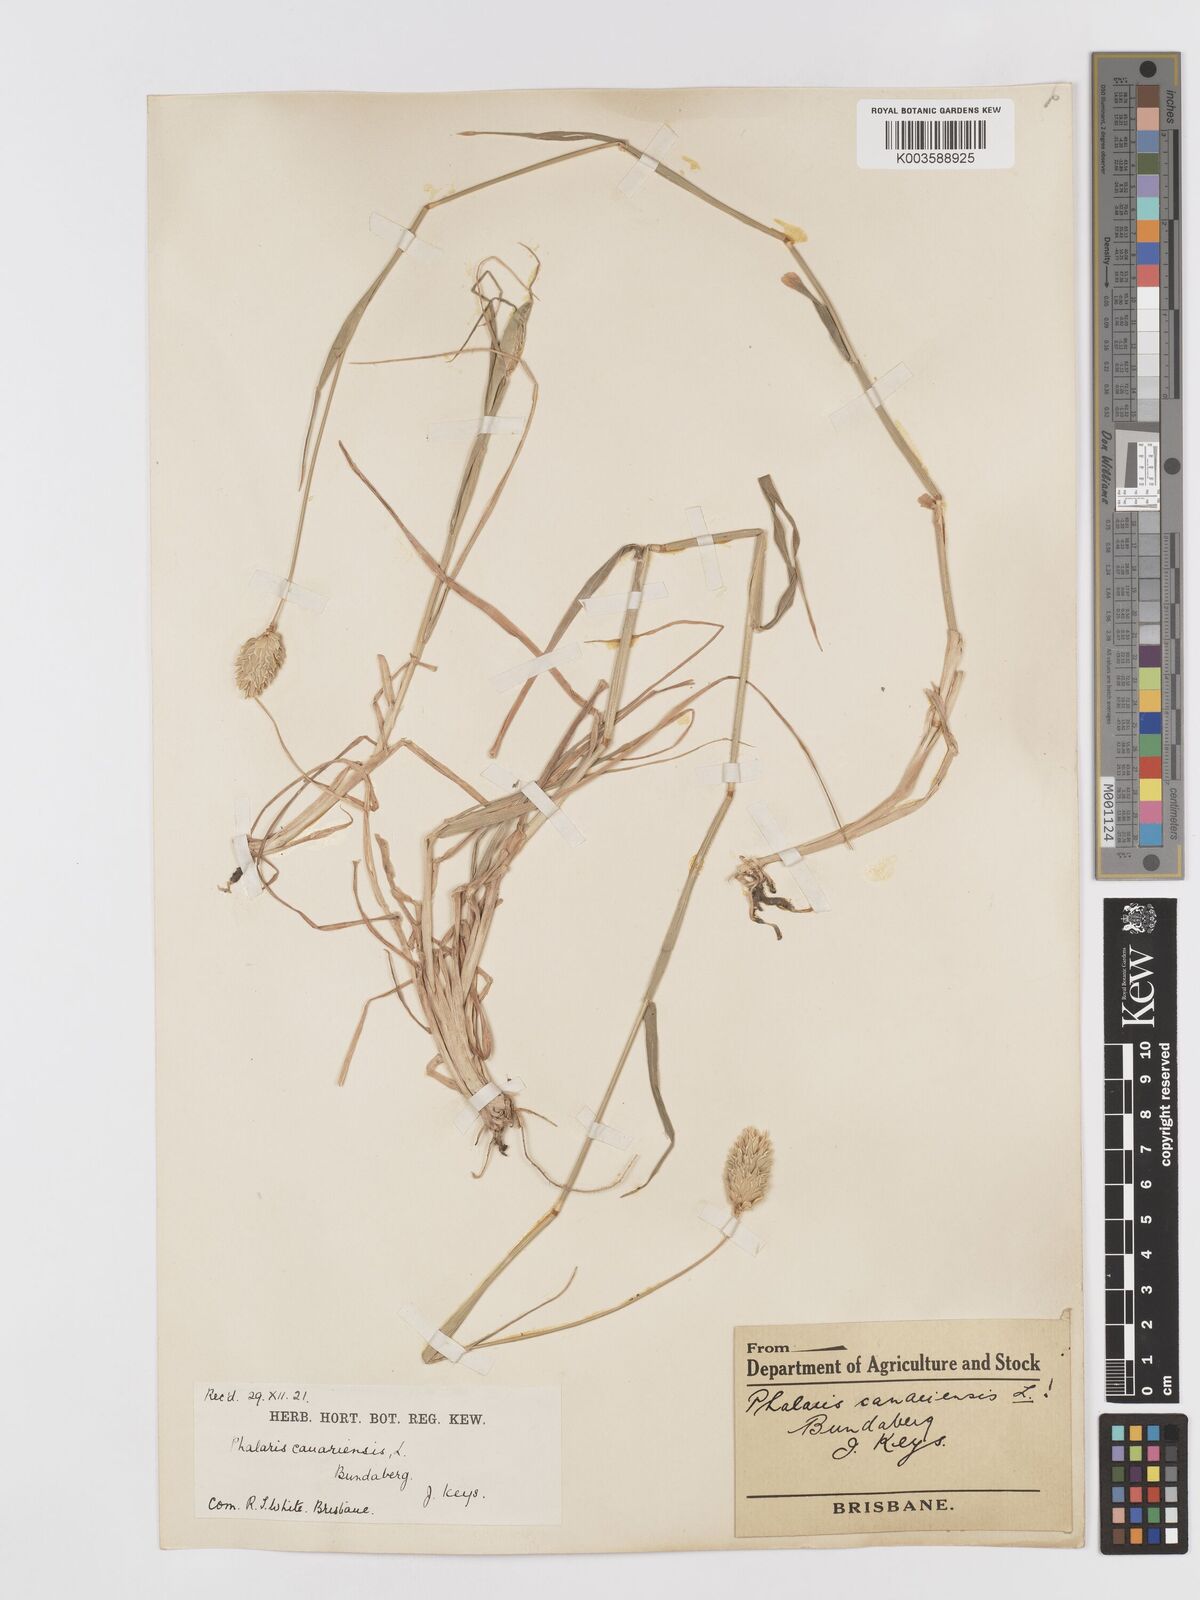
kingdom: Plantae
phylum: Tracheophyta
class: Liliopsida
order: Poales
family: Poaceae
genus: Phalaris
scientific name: Phalaris canariensis
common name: Annual canarygrass
